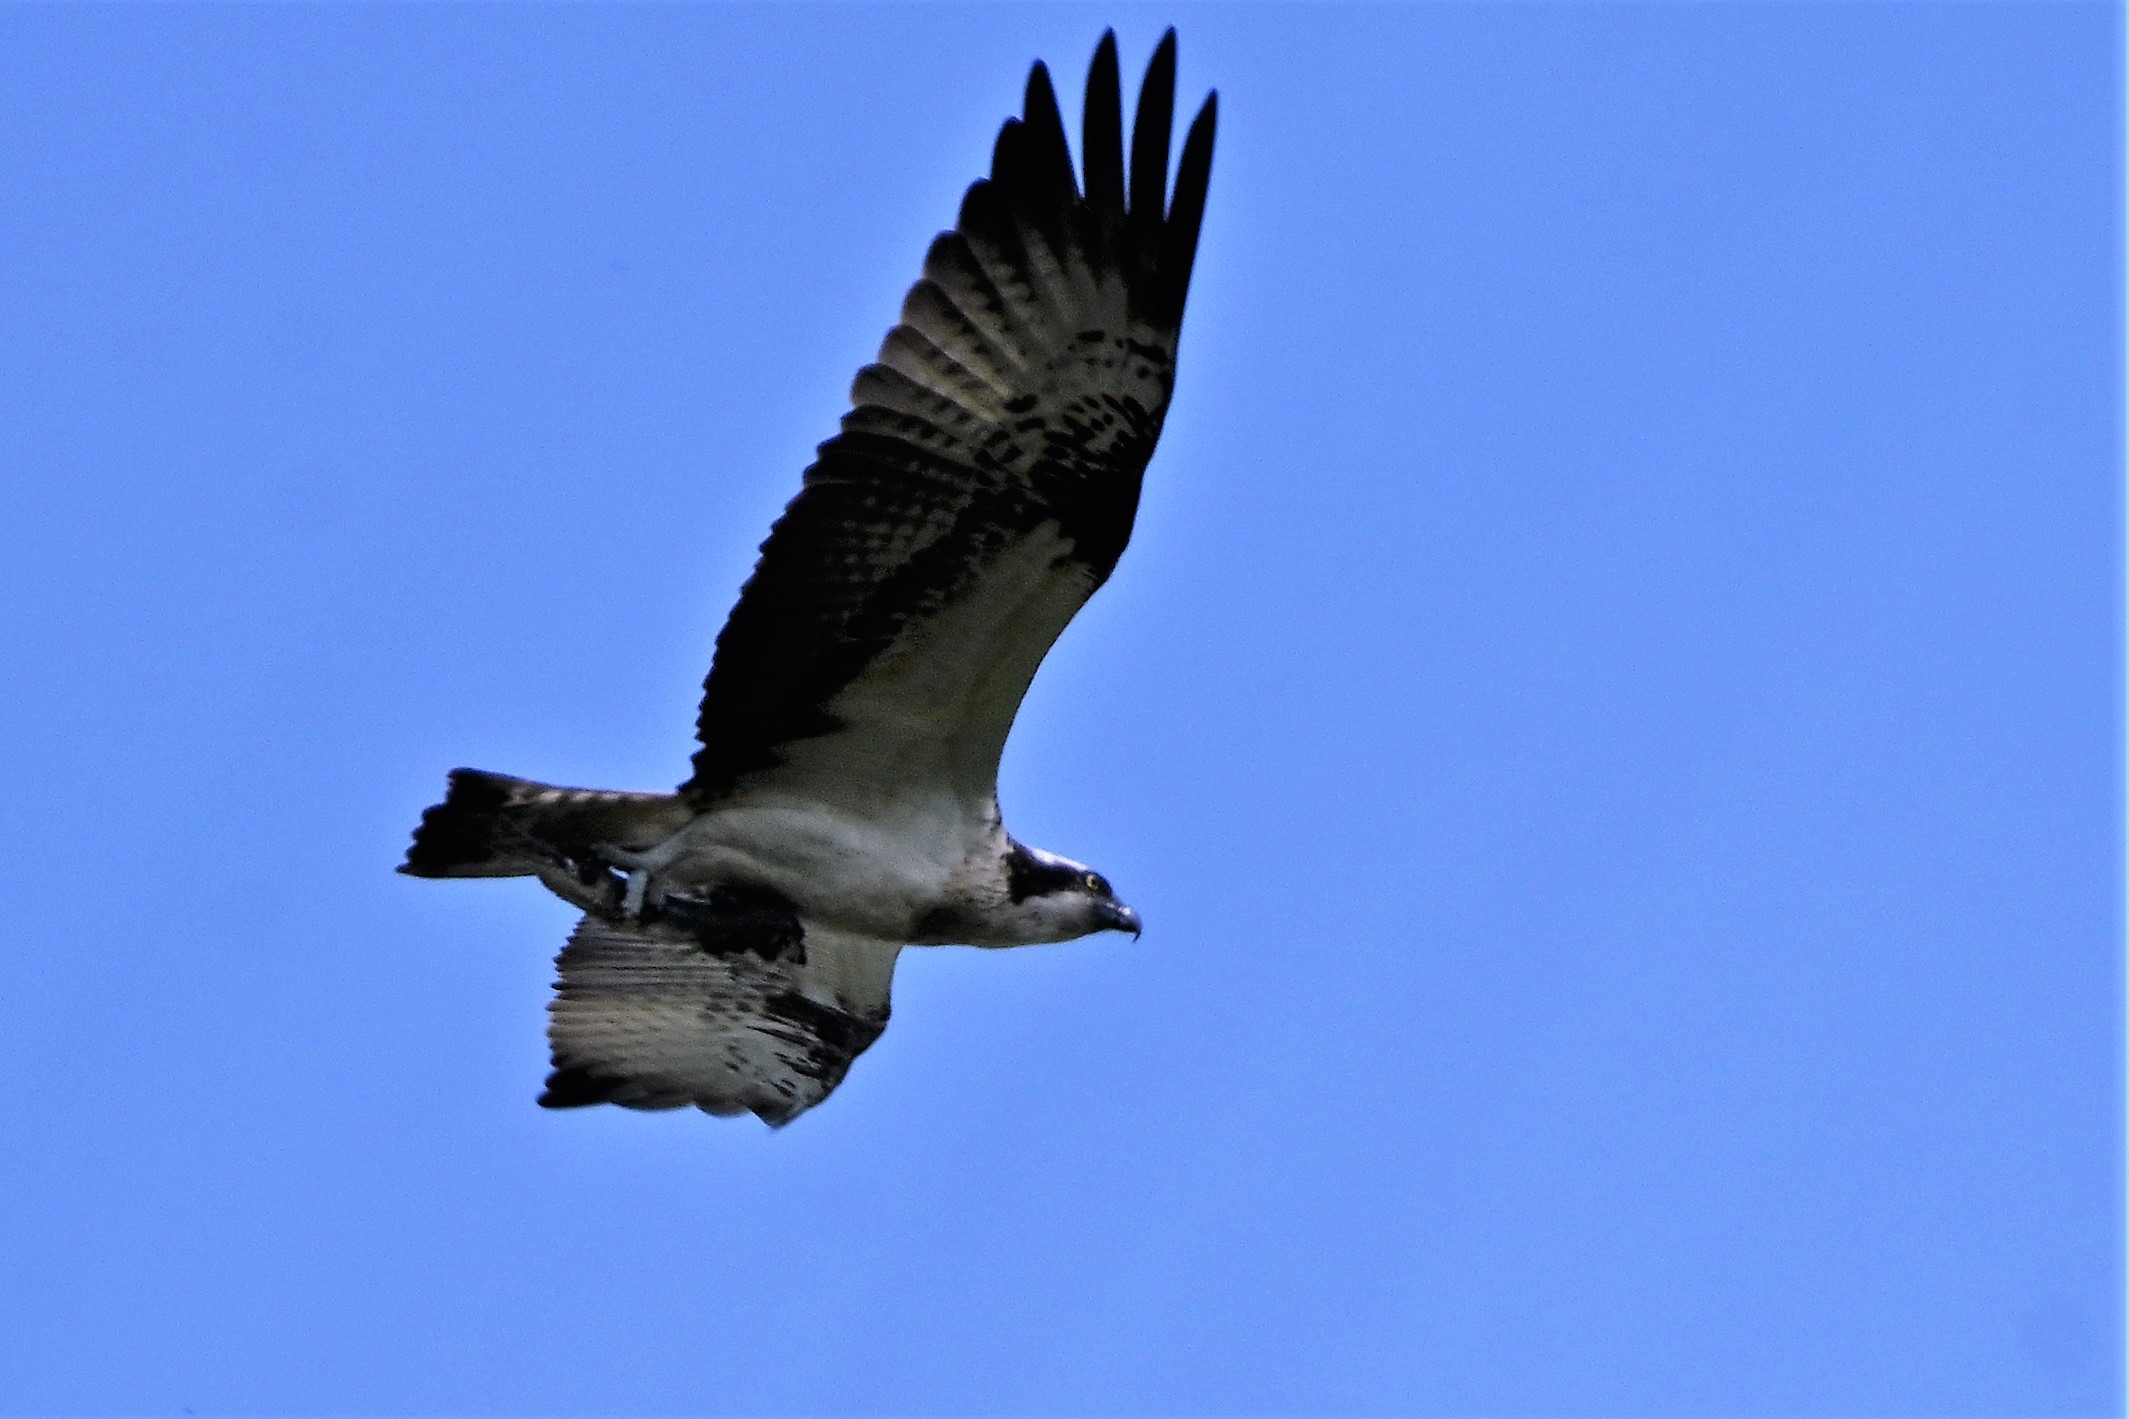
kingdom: Animalia
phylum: Chordata
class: Aves
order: Accipitriformes
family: Pandionidae
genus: Pandion
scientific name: Pandion haliaetus
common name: Fiskeørn
